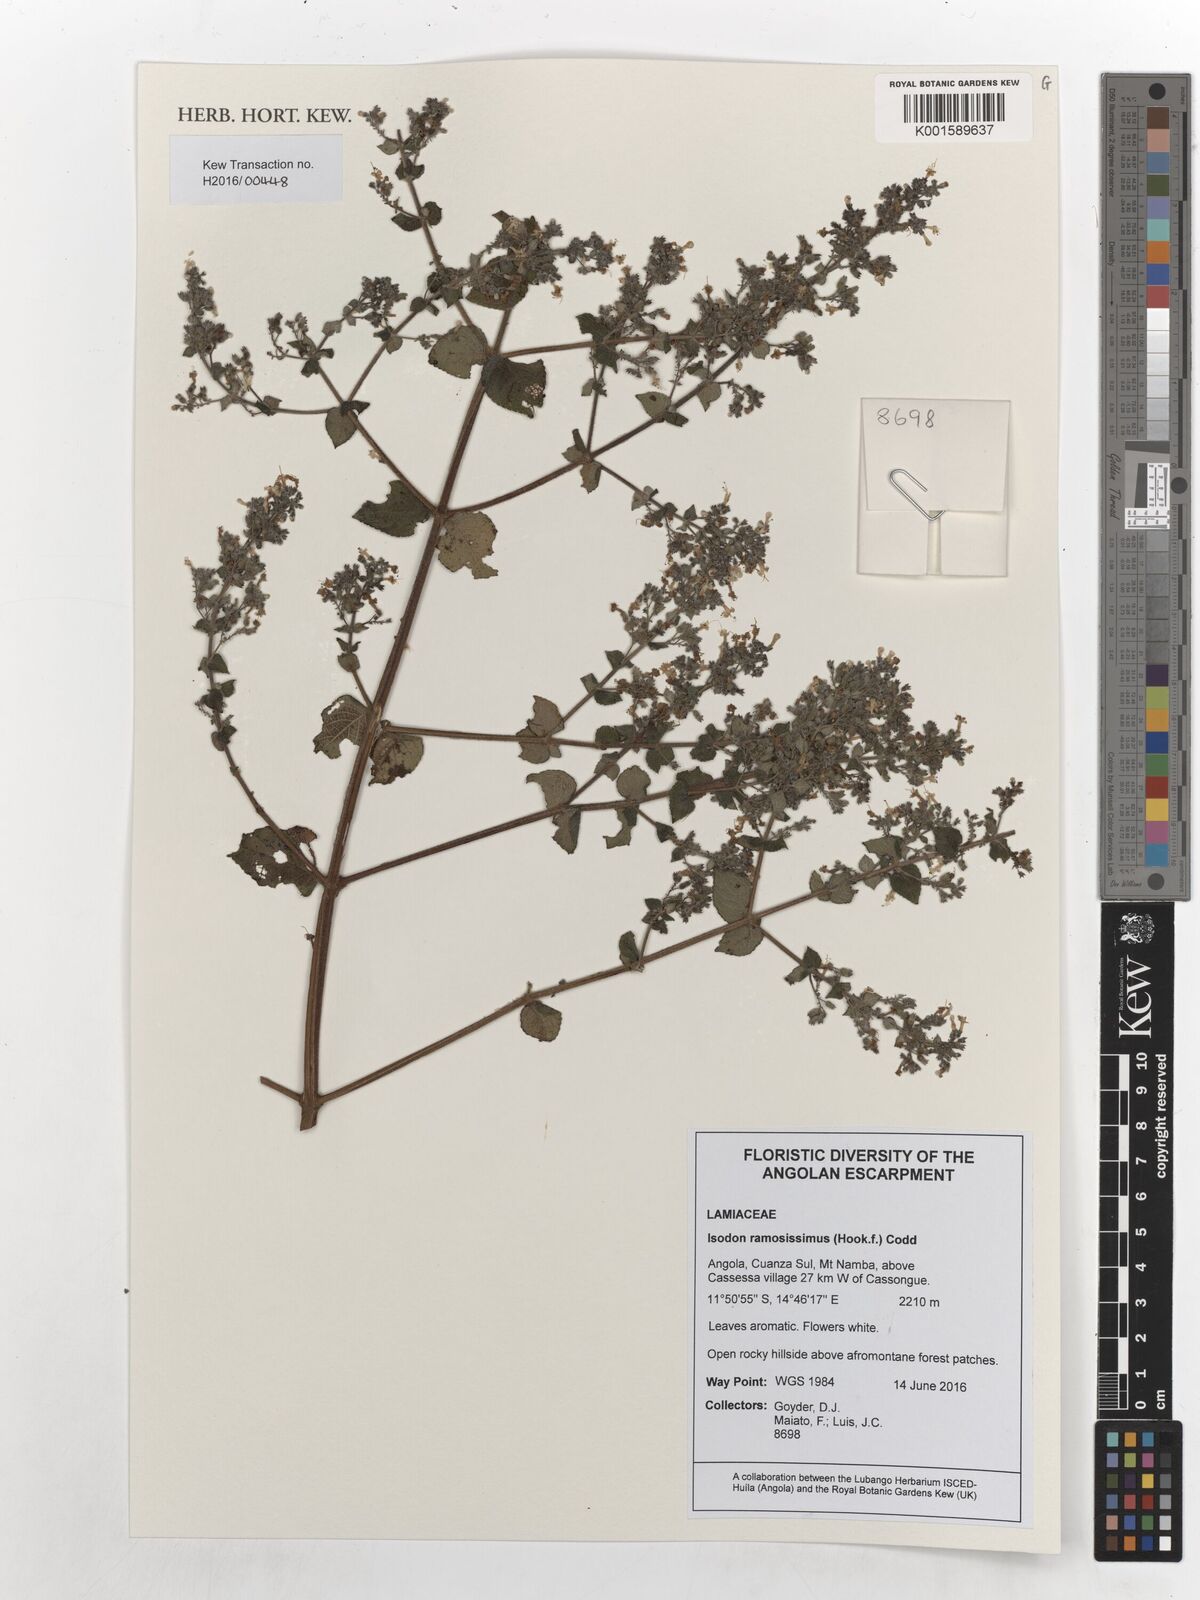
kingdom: Plantae
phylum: Tracheophyta
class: Magnoliopsida
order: Lamiales
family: Lamiaceae
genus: Isodon
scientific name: Isodon ramosissimus
